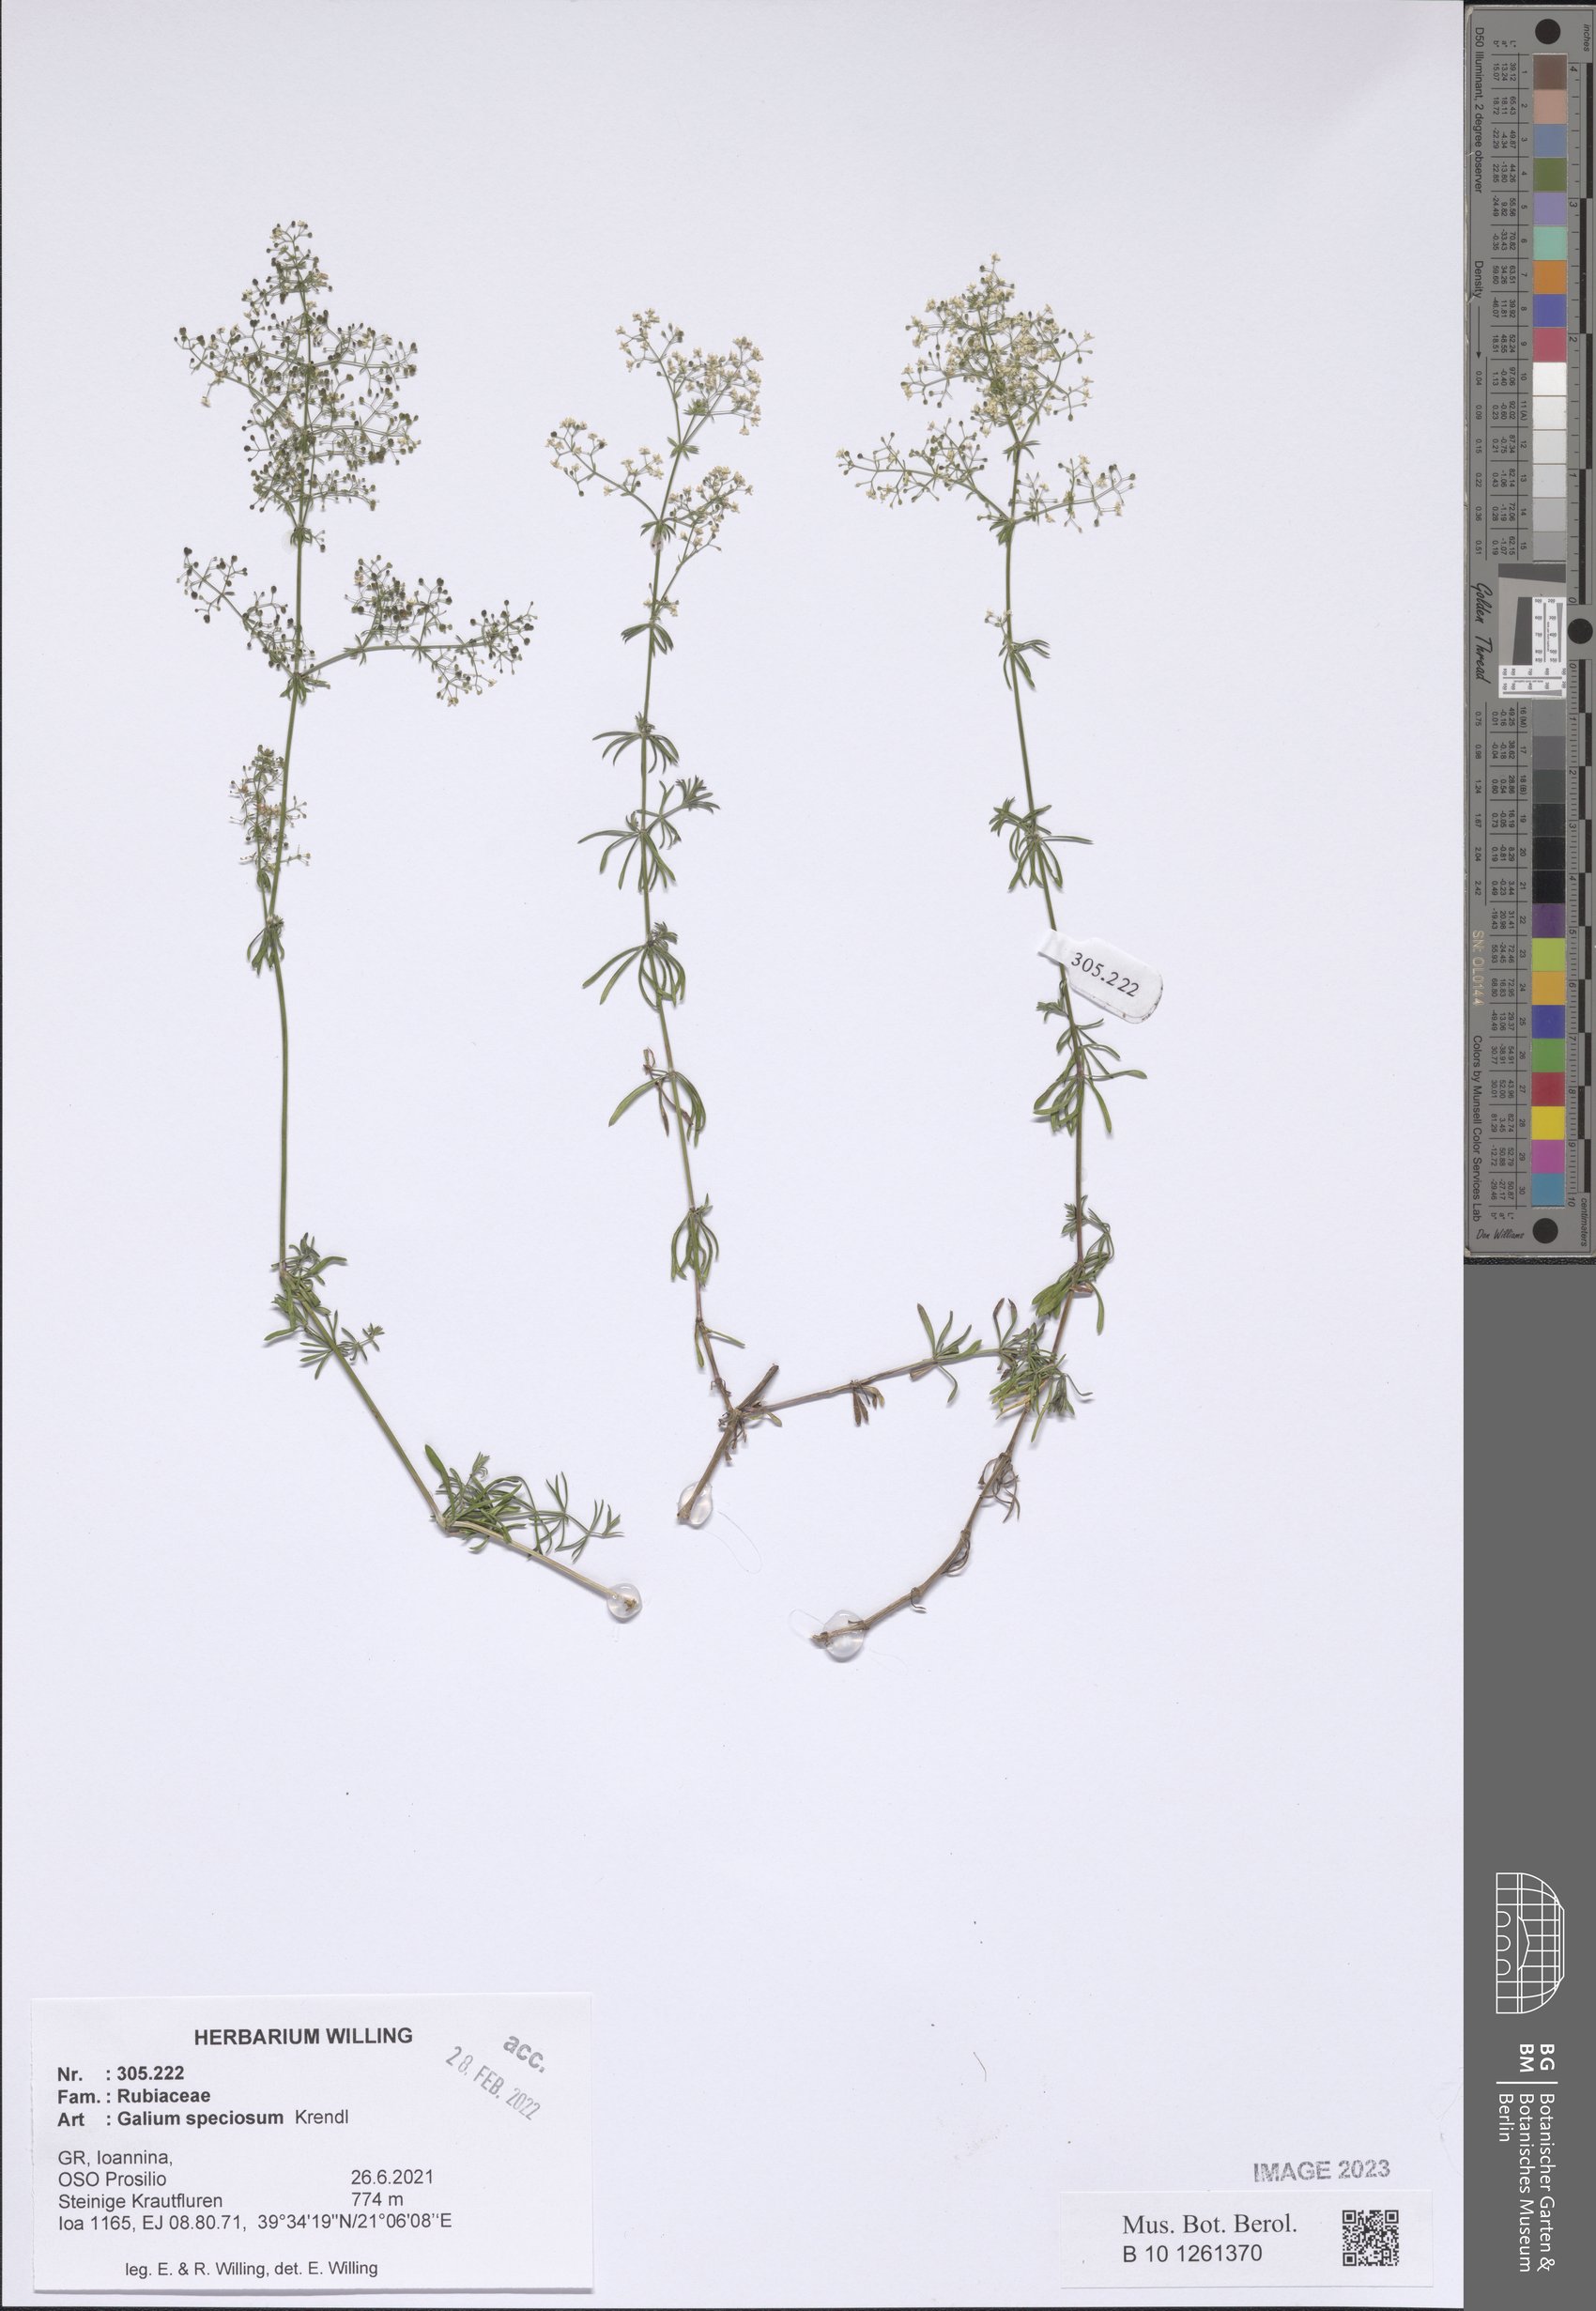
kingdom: Plantae
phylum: Tracheophyta
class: Magnoliopsida
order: Gentianales
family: Rubiaceae
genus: Galium
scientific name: Galium speciosum
